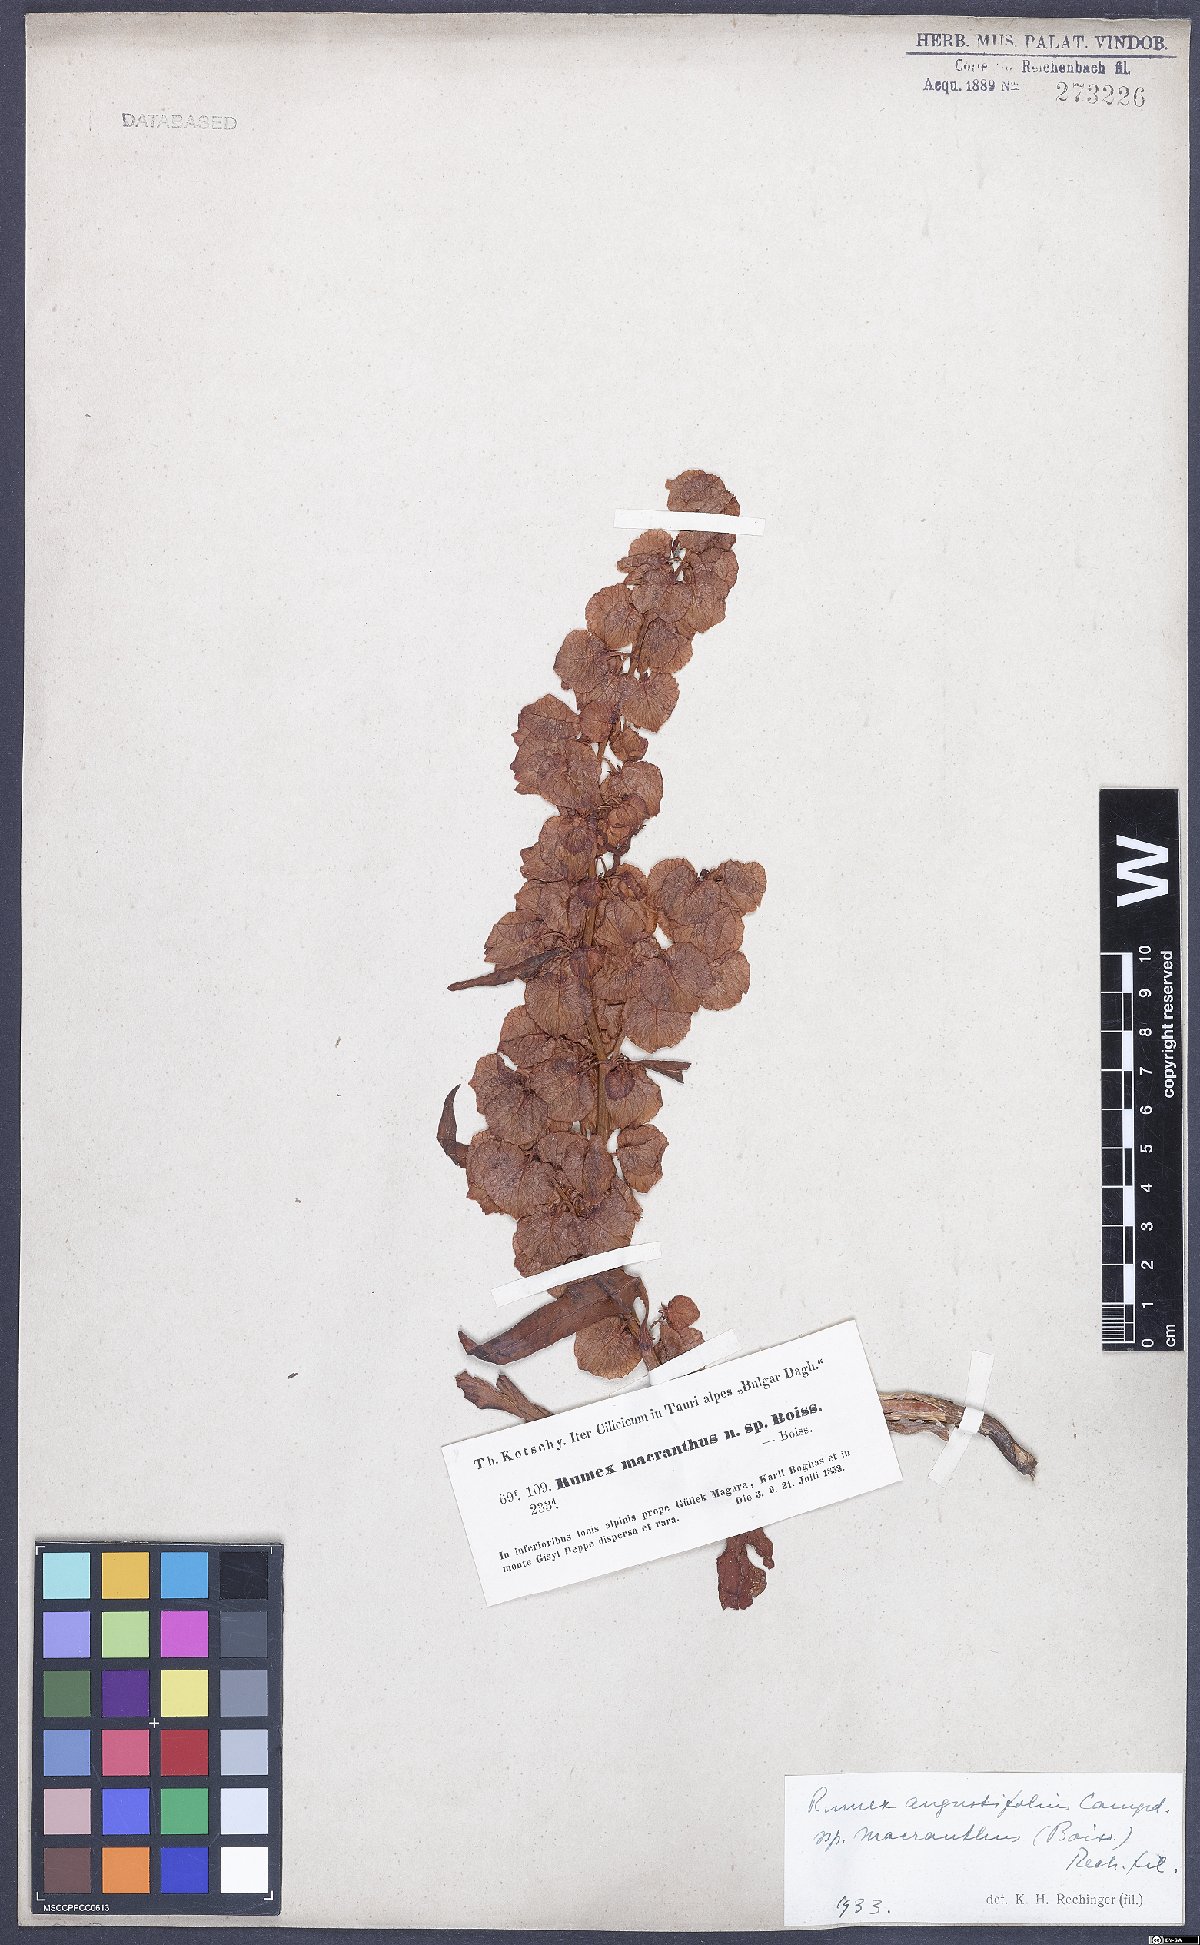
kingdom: Plantae
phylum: Tracheophyta
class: Magnoliopsida
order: Caryophyllales
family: Polygonaceae
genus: Rumex
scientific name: Rumex angustifolius
